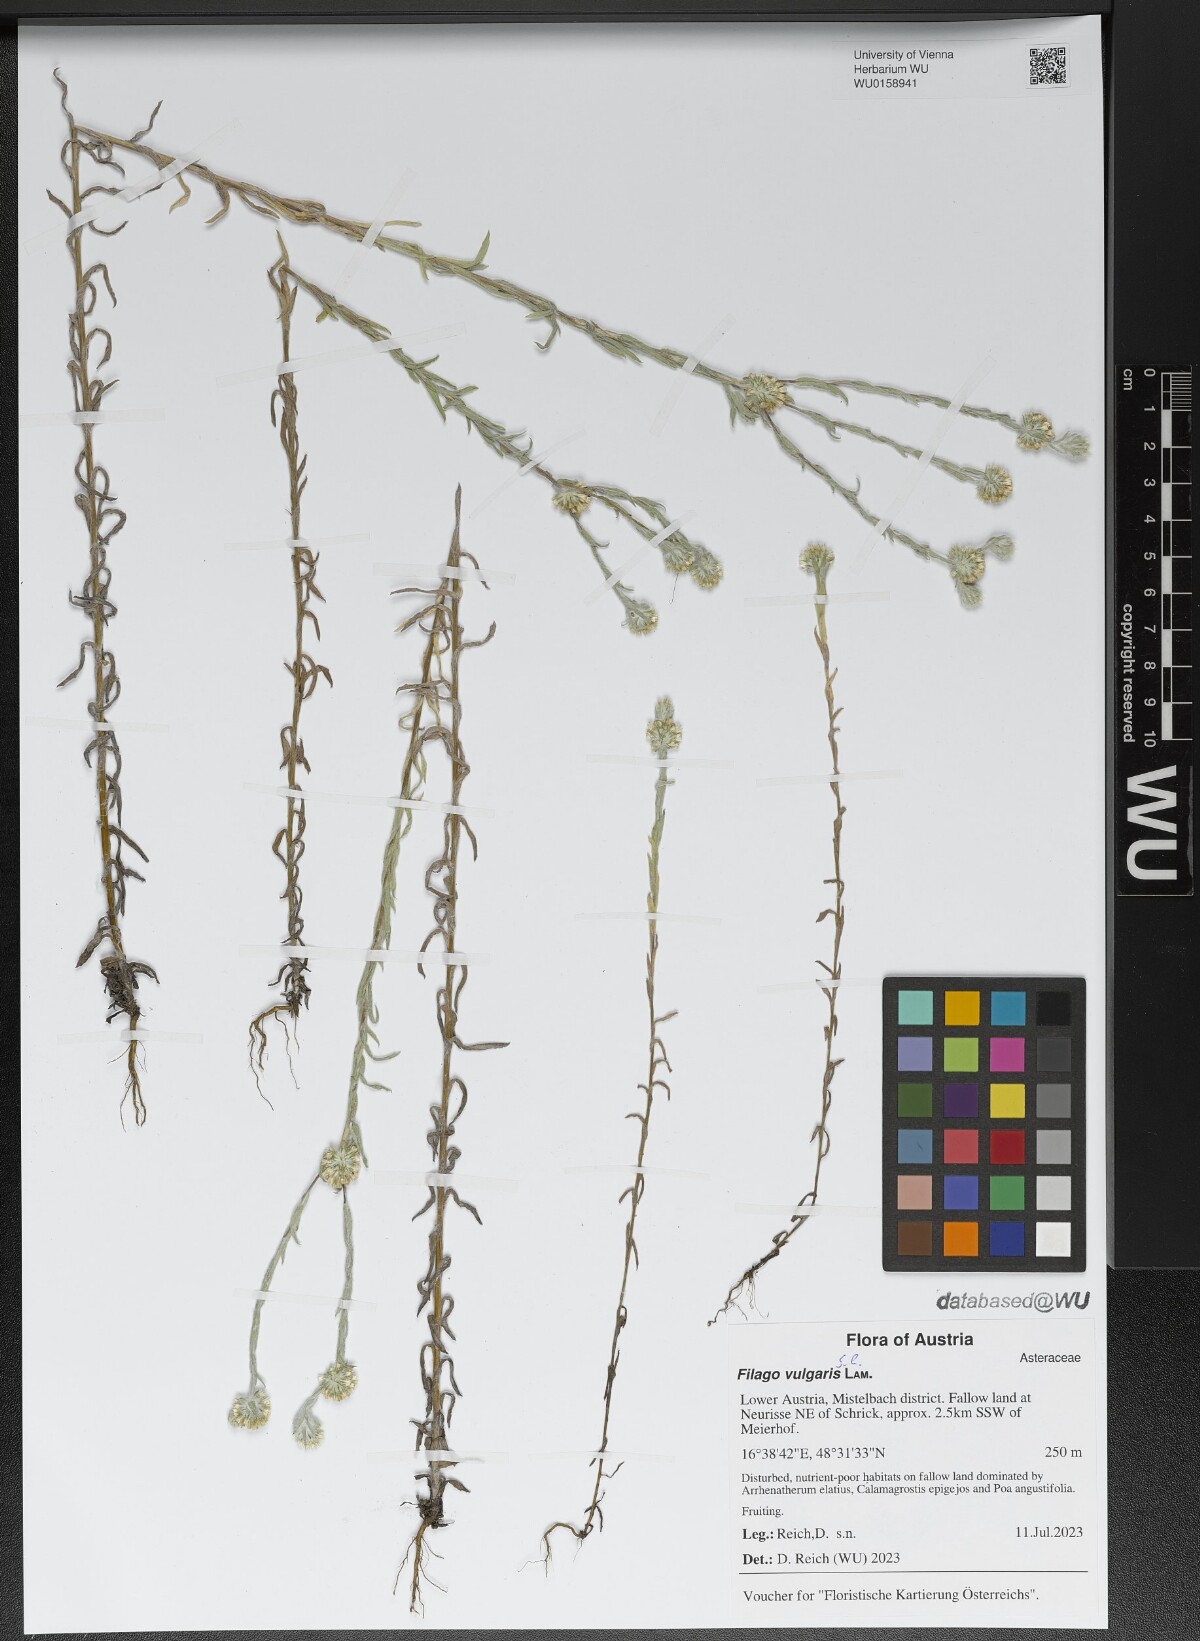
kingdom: Plantae
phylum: Tracheophyta
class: Magnoliopsida
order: Asterales
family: Asteraceae
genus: Filago
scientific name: Filago germanica
